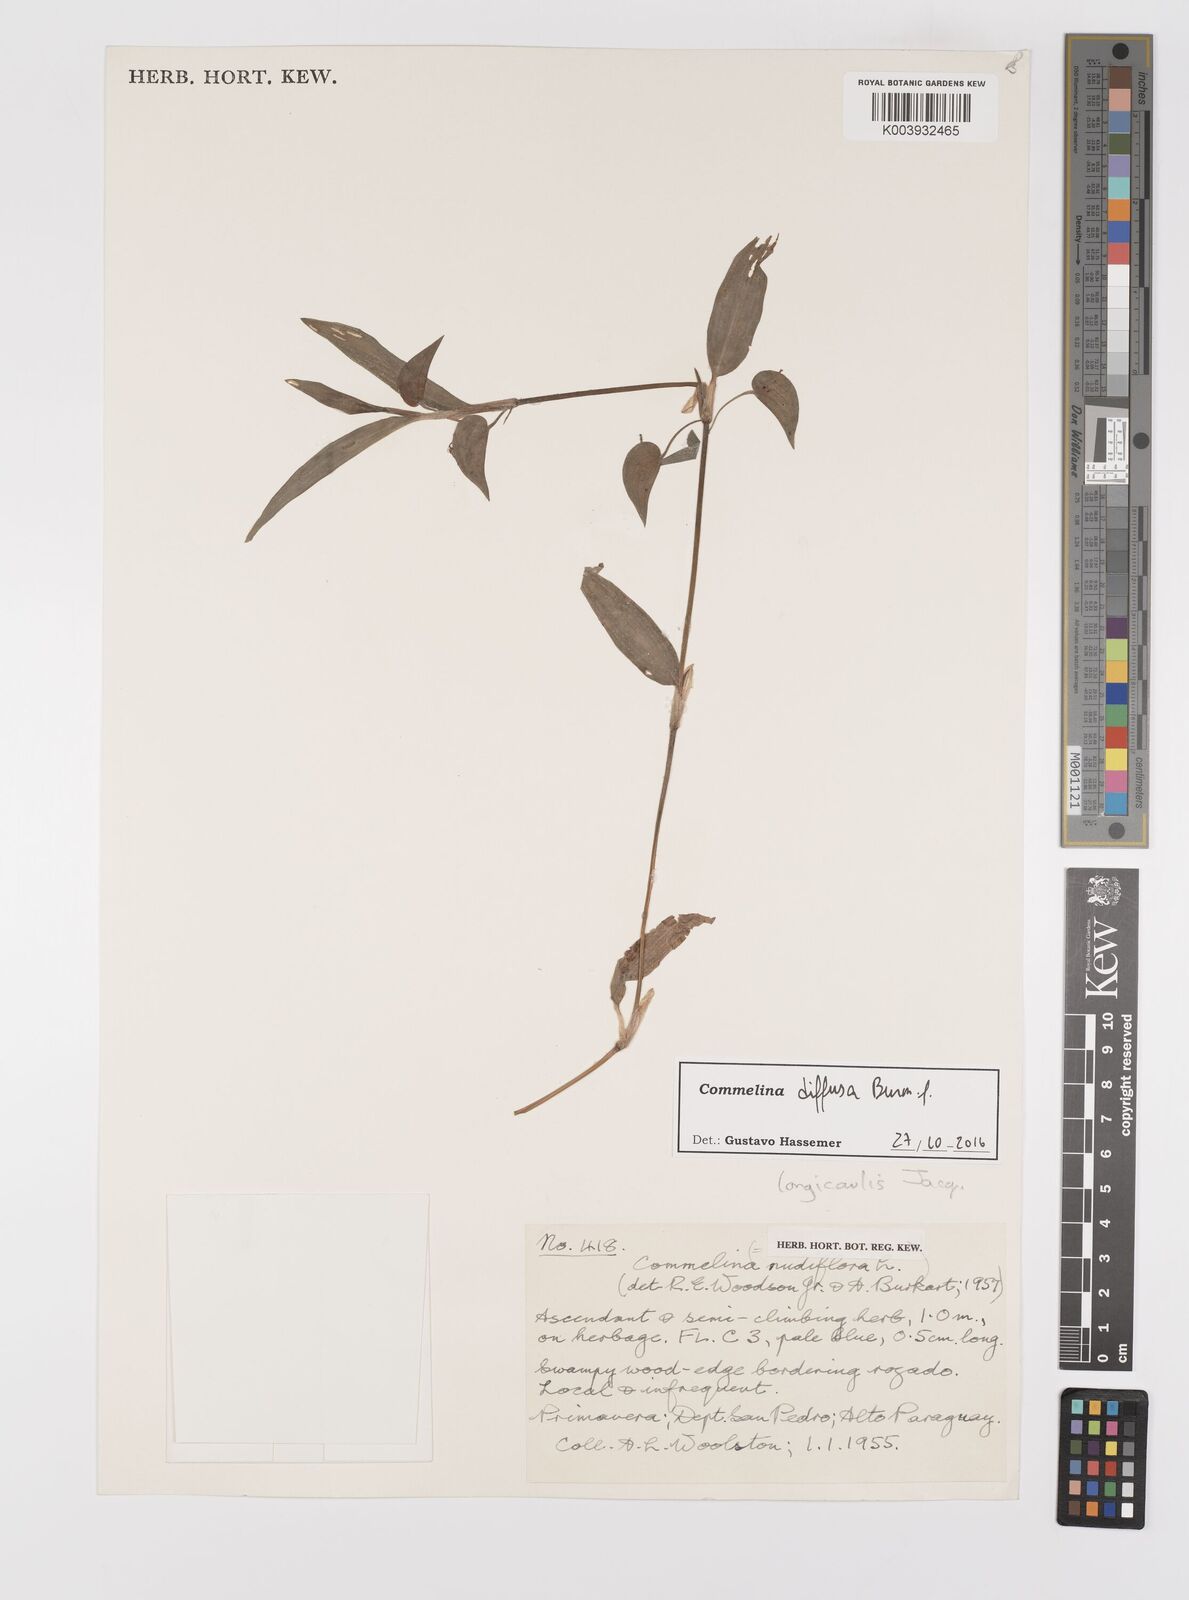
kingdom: Plantae
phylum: Tracheophyta
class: Liliopsida
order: Commelinales
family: Commelinaceae
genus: Commelina
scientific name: Commelina diffusa
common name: Climbing dayflower
